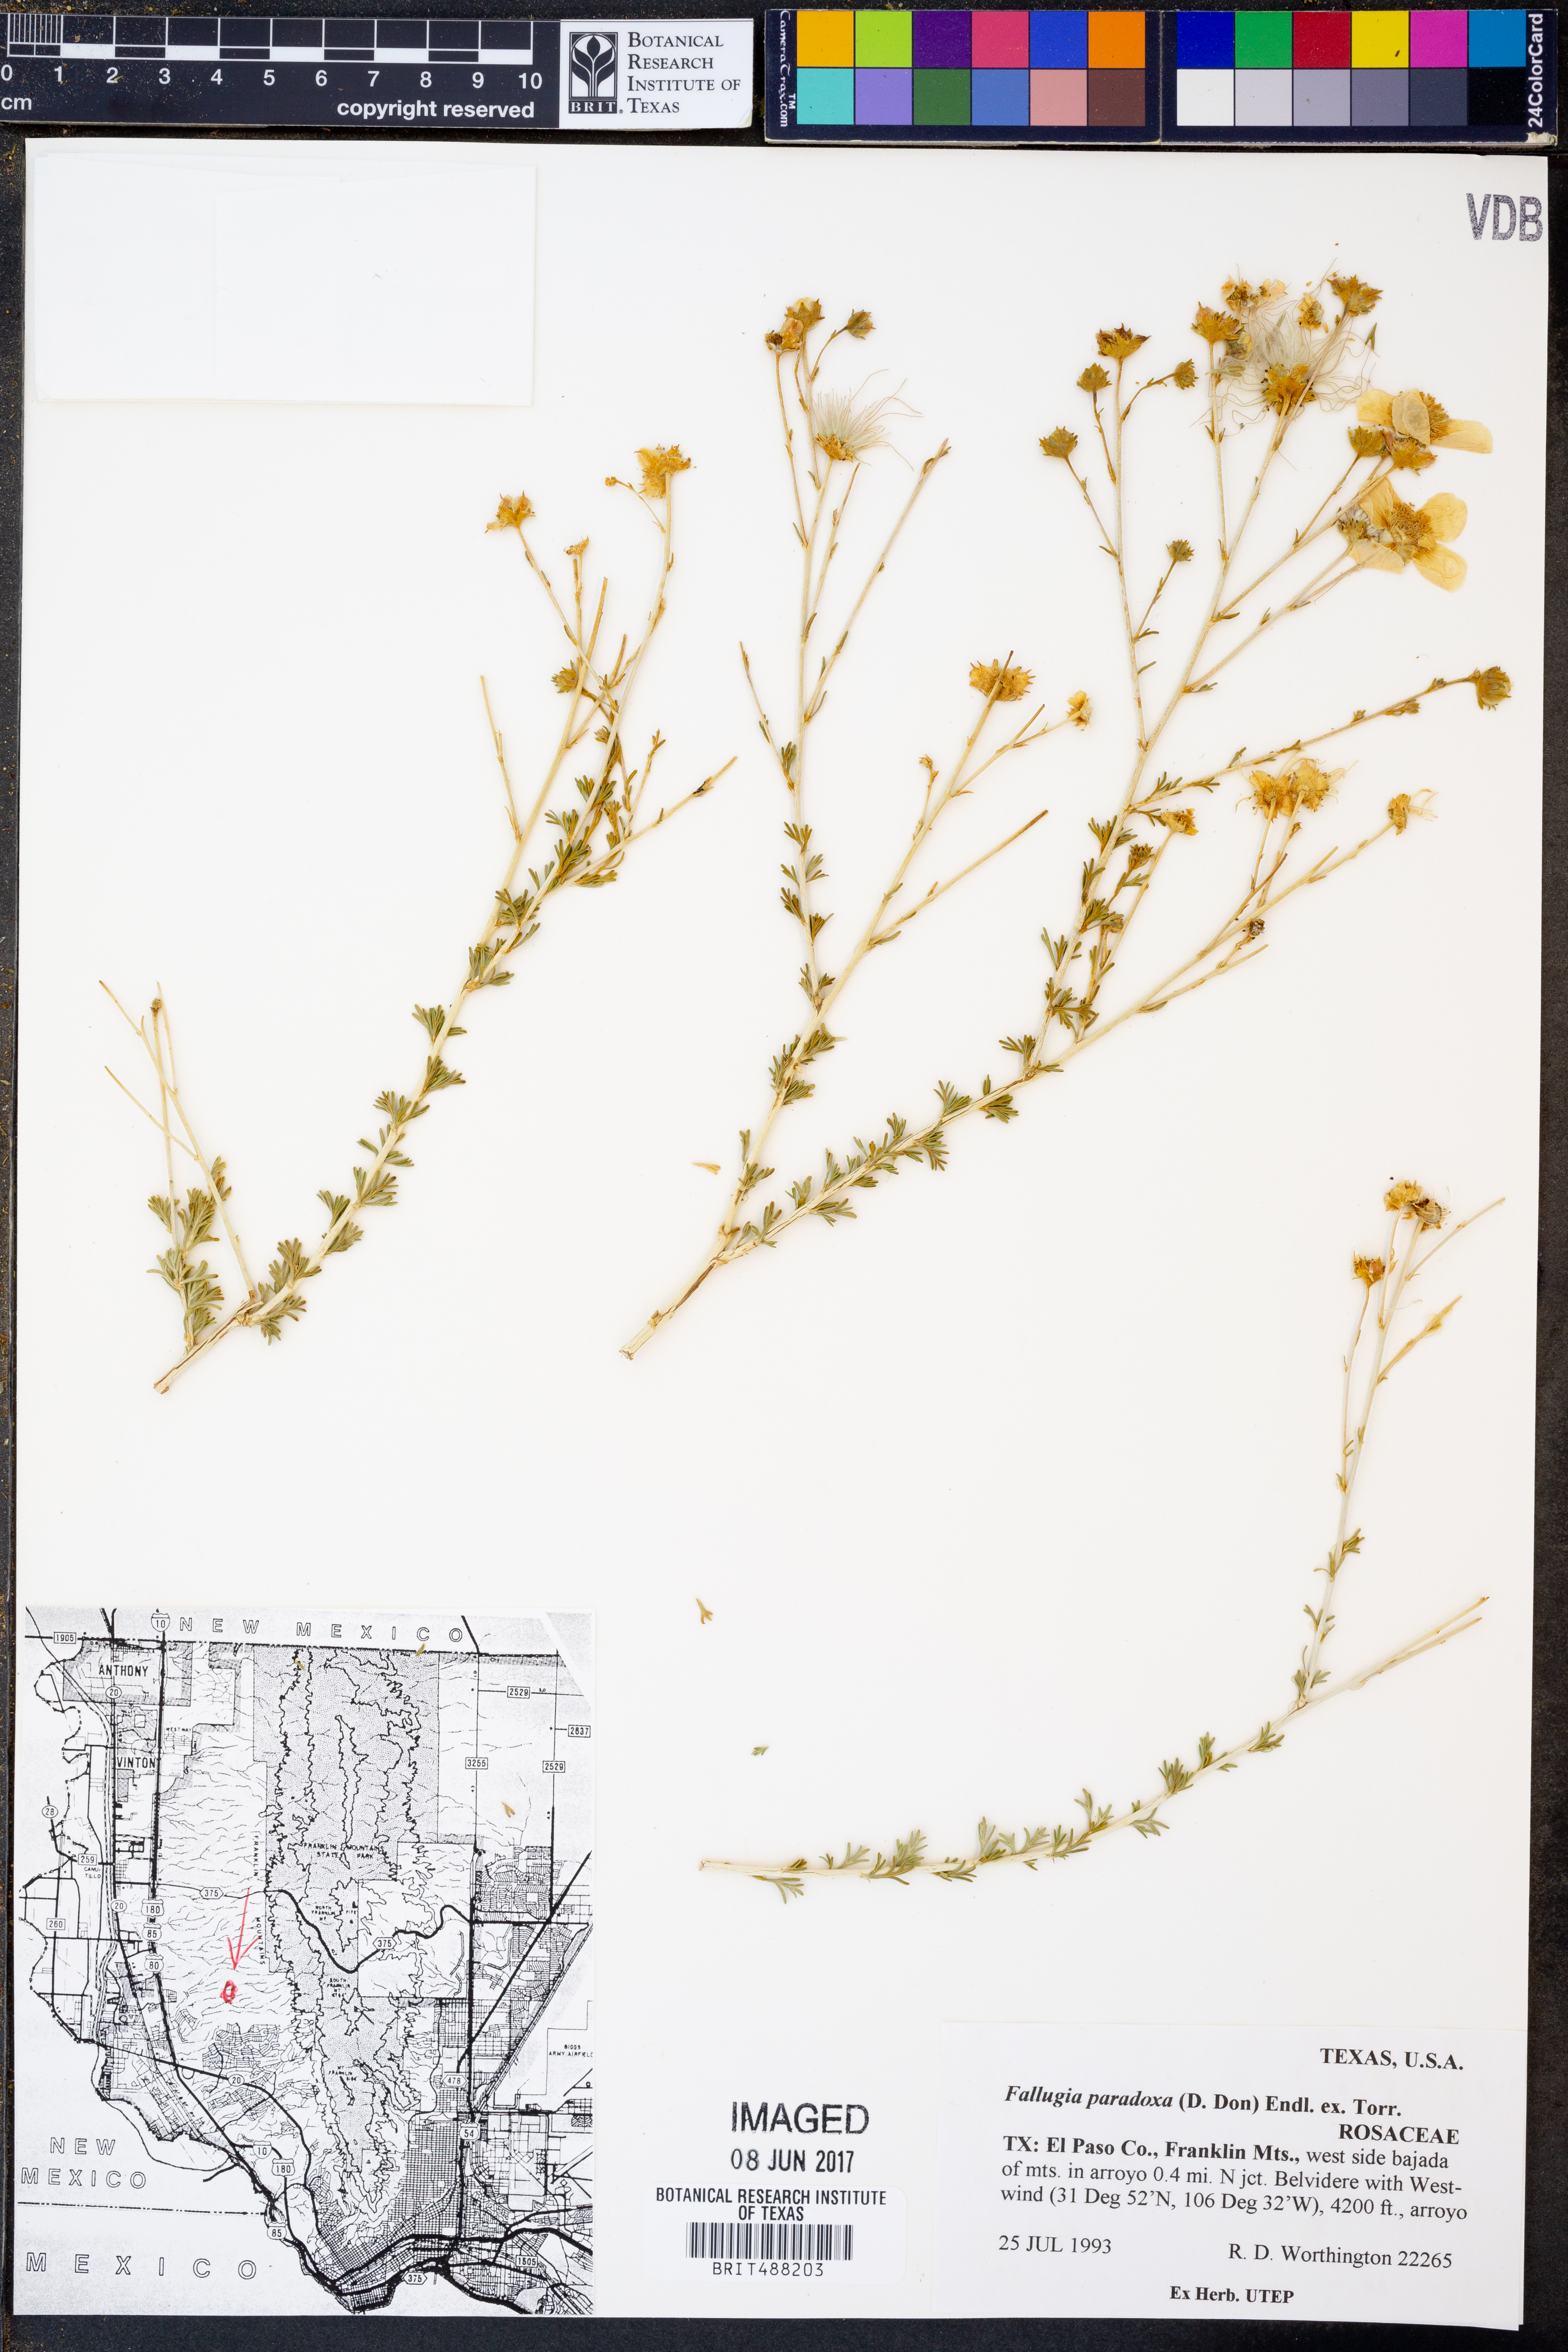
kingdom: Plantae
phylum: Tracheophyta
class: Magnoliopsida
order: Rosales
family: Rosaceae
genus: Fallugia
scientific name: Fallugia paradoxa
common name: Apache-plume
